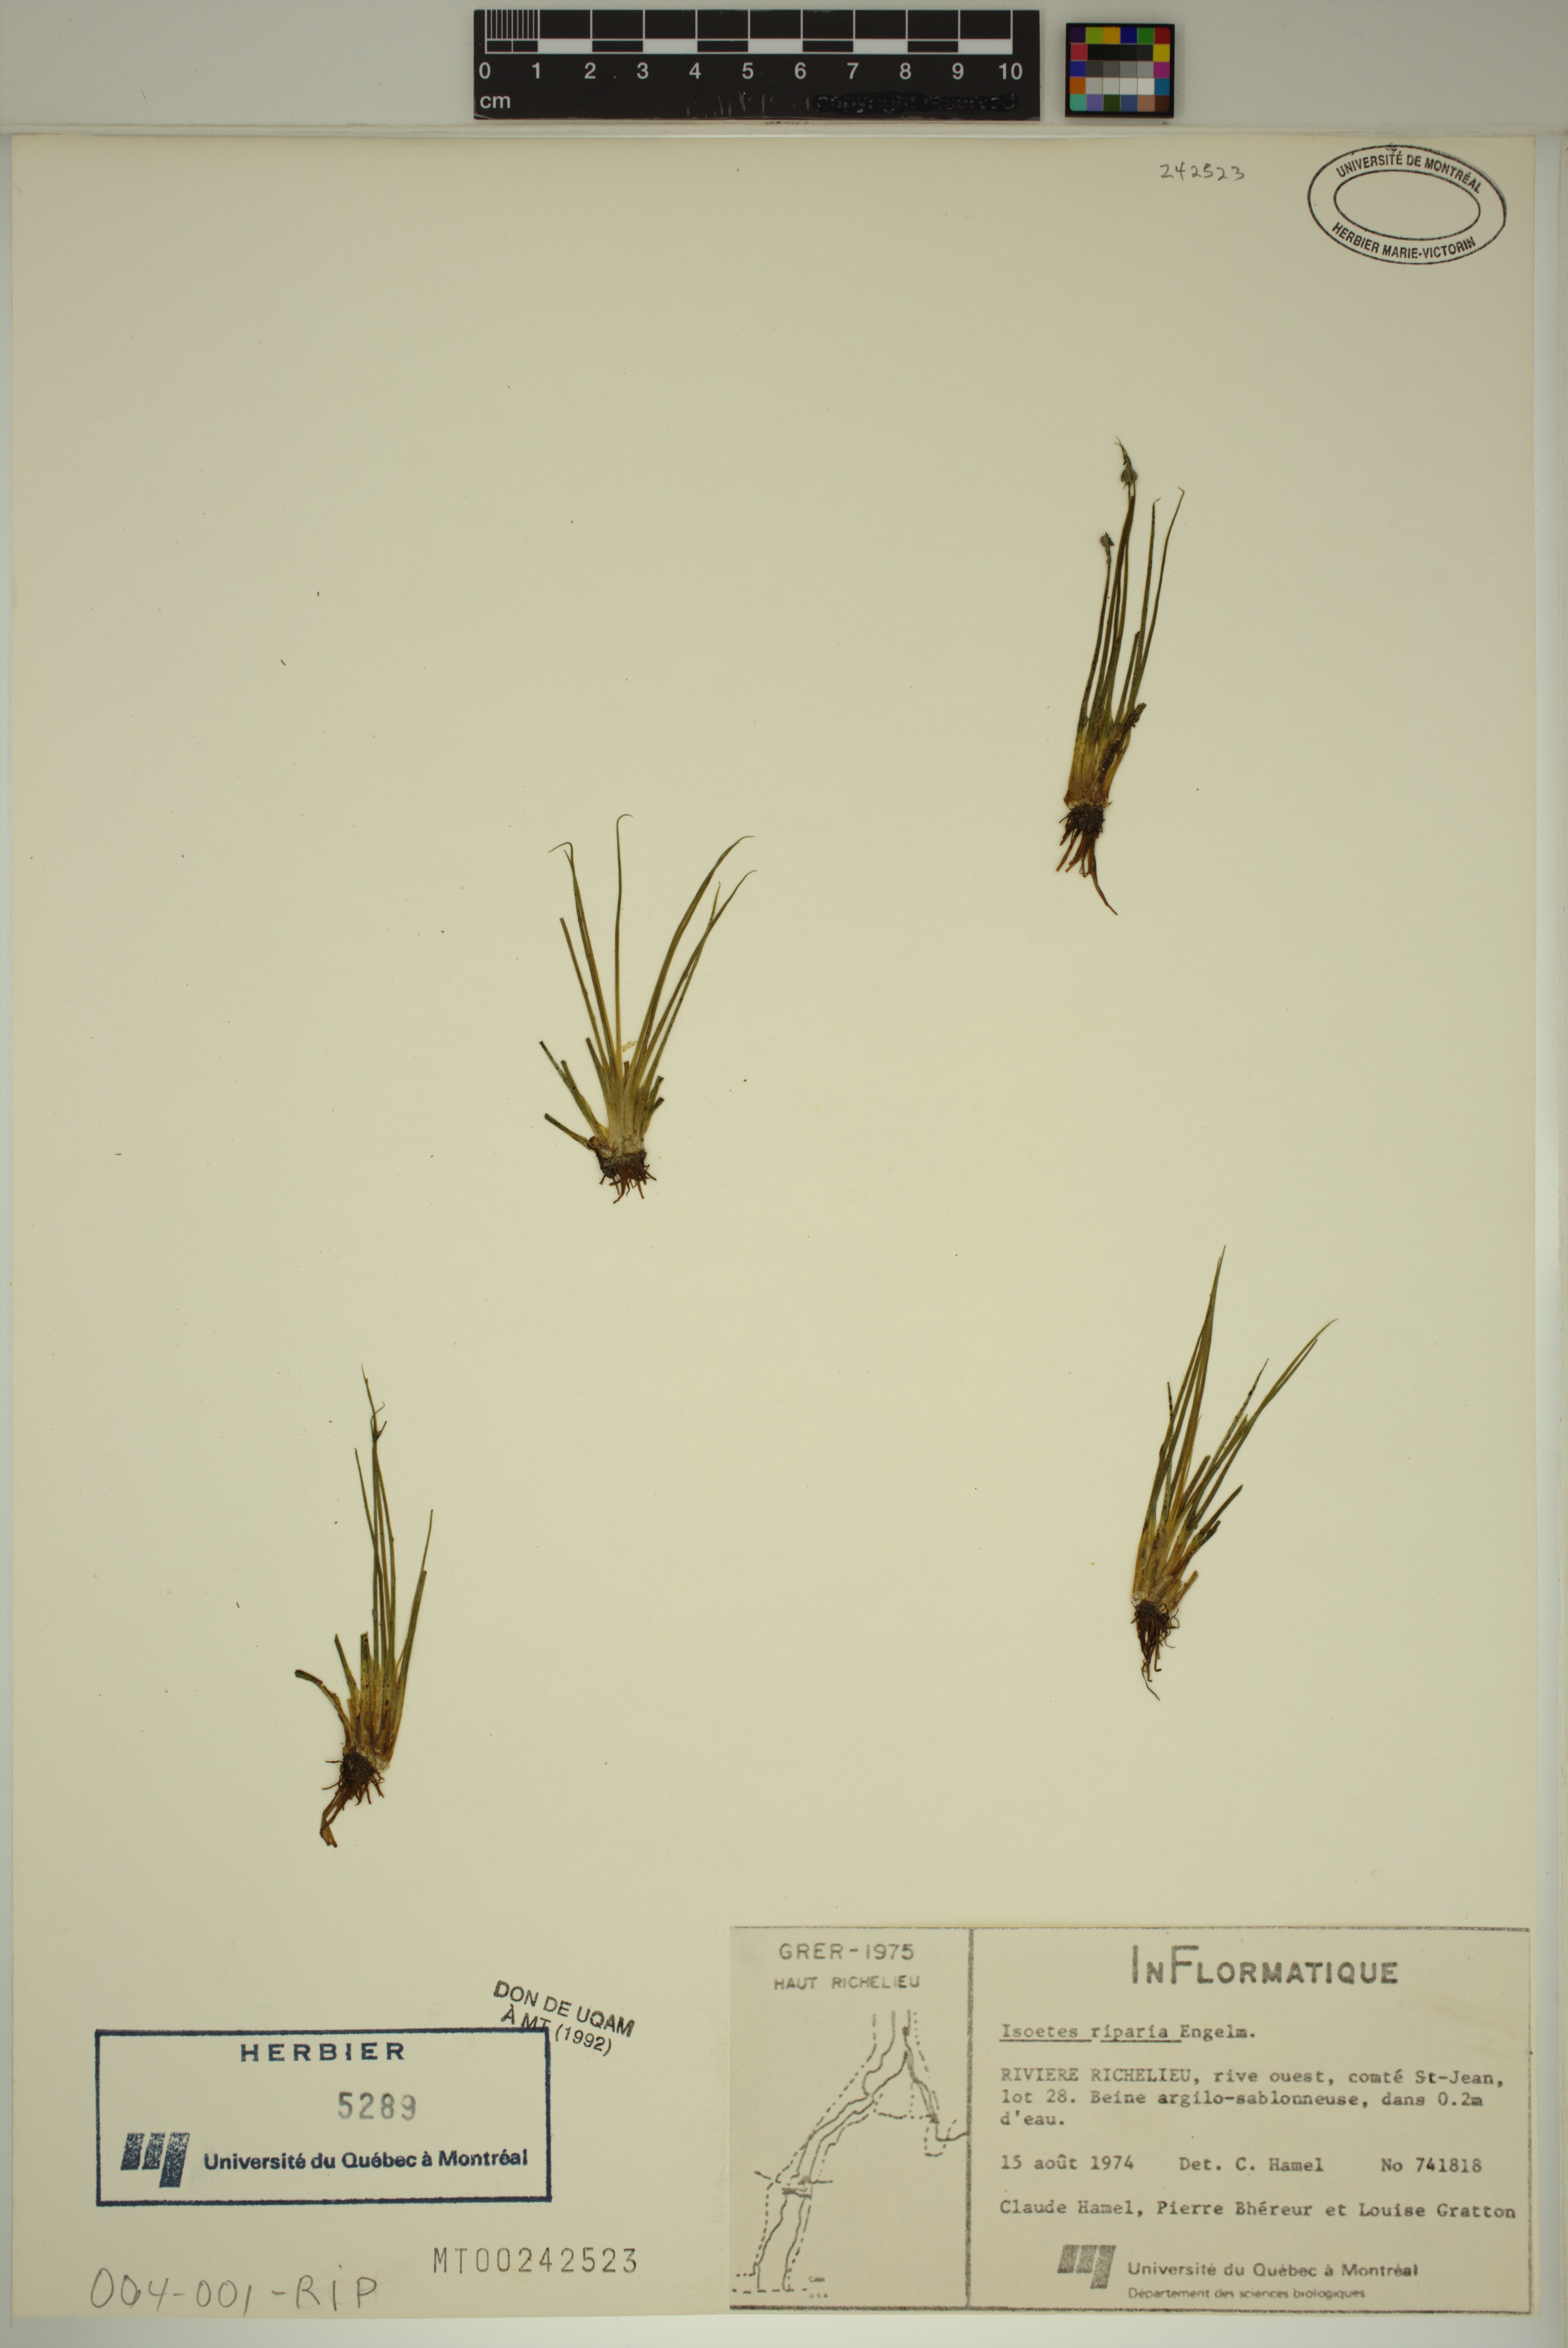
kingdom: Plantae
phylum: Tracheophyta
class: Lycopodiopsida
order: Isoetales
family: Isoetaceae
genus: Isoetes
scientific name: Isoetes septentrionalis
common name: Northern quillwort
